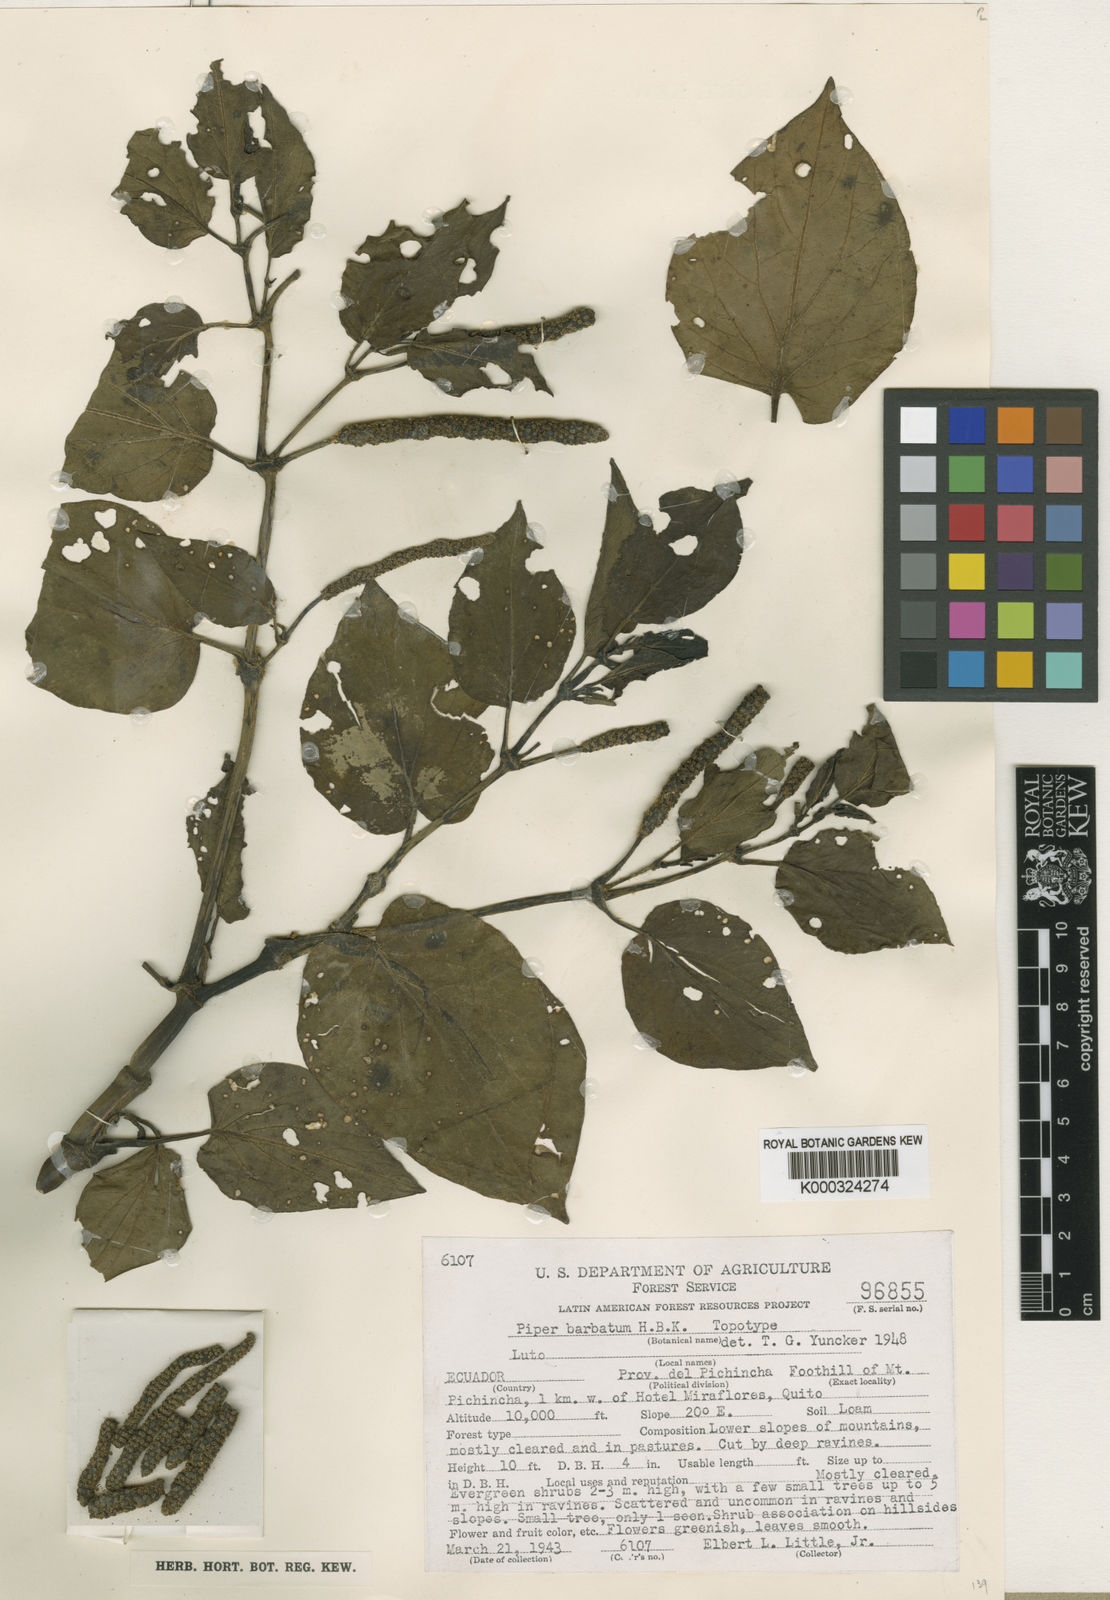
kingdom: Plantae
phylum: Tracheophyta
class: Magnoliopsida
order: Piperales
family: Piperaceae
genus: Piper
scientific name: Piper barbatum
